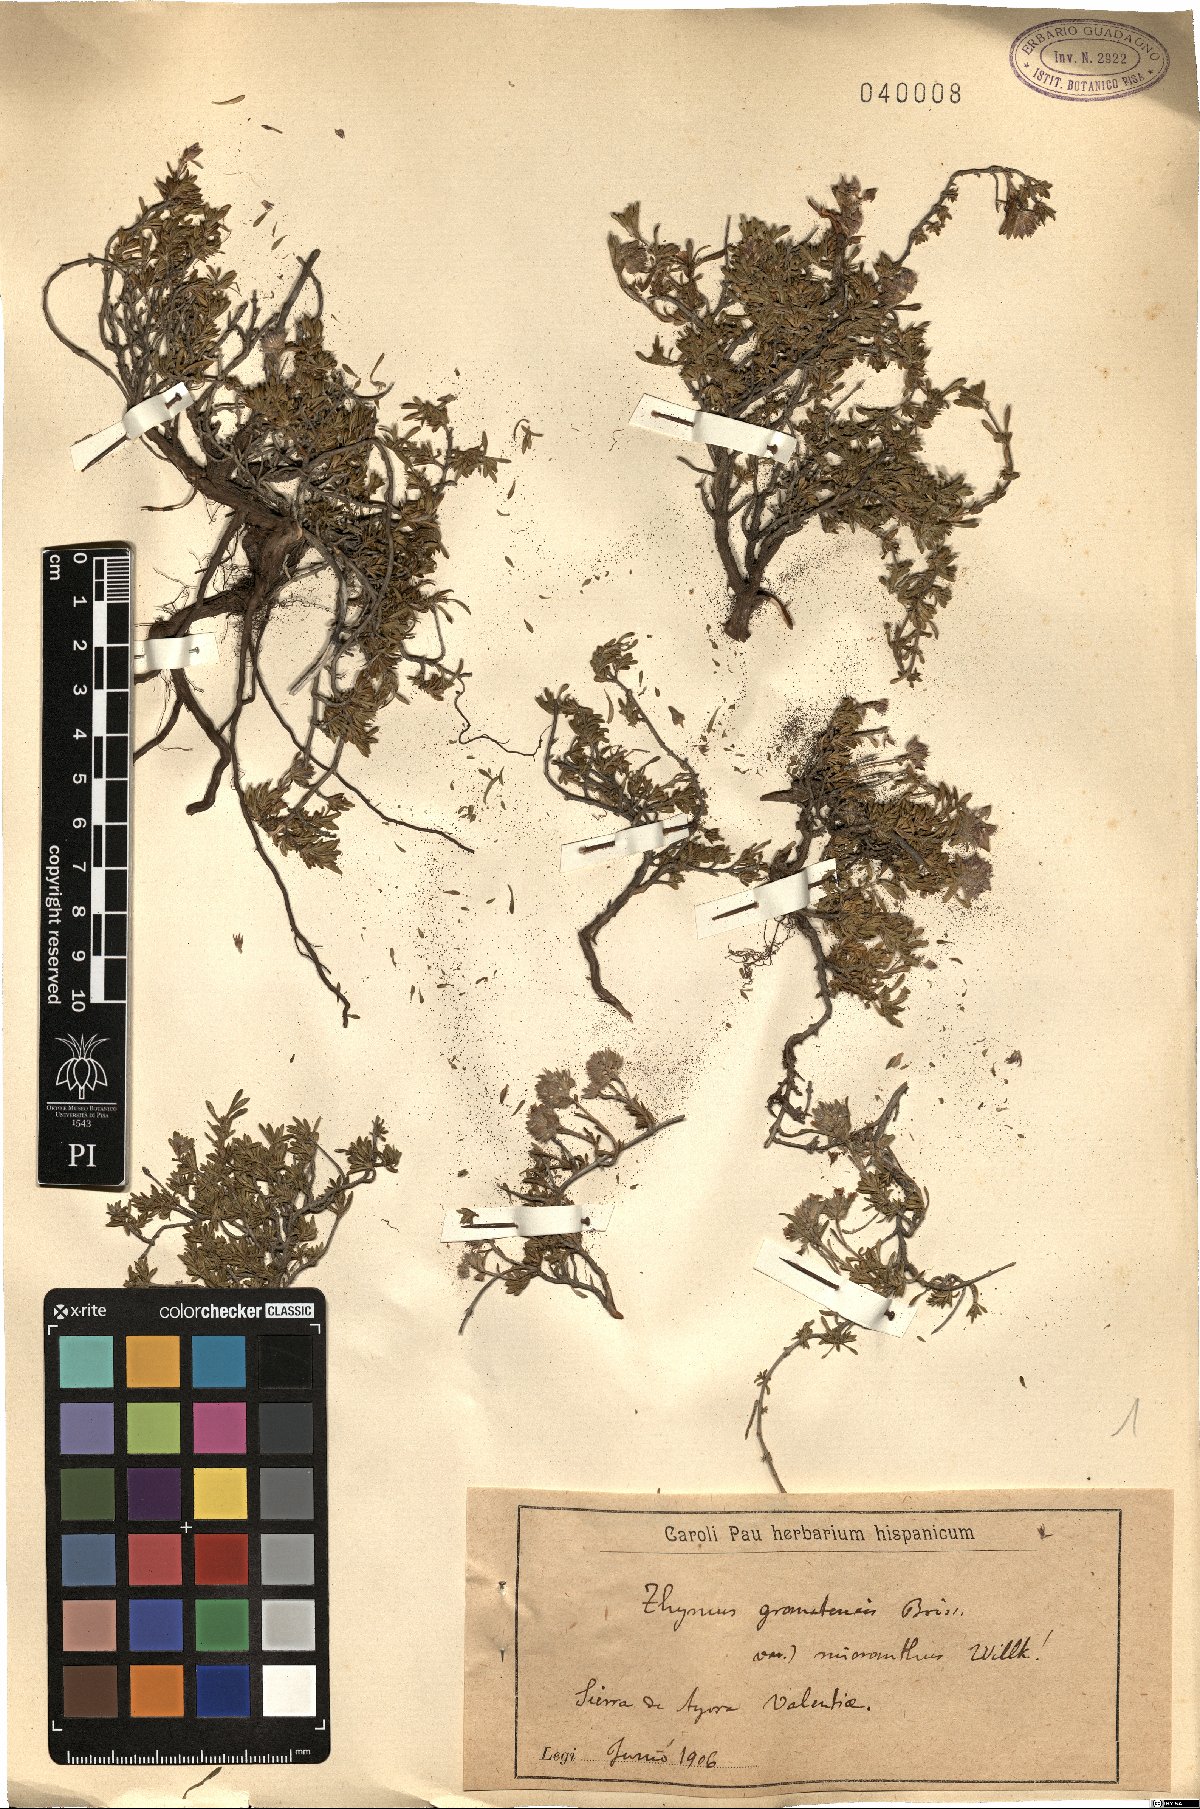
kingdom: Plantae
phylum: Tracheophyta
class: Magnoliopsida
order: Lamiales
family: Lamiaceae
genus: Thymus
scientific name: Thymus granatensis
